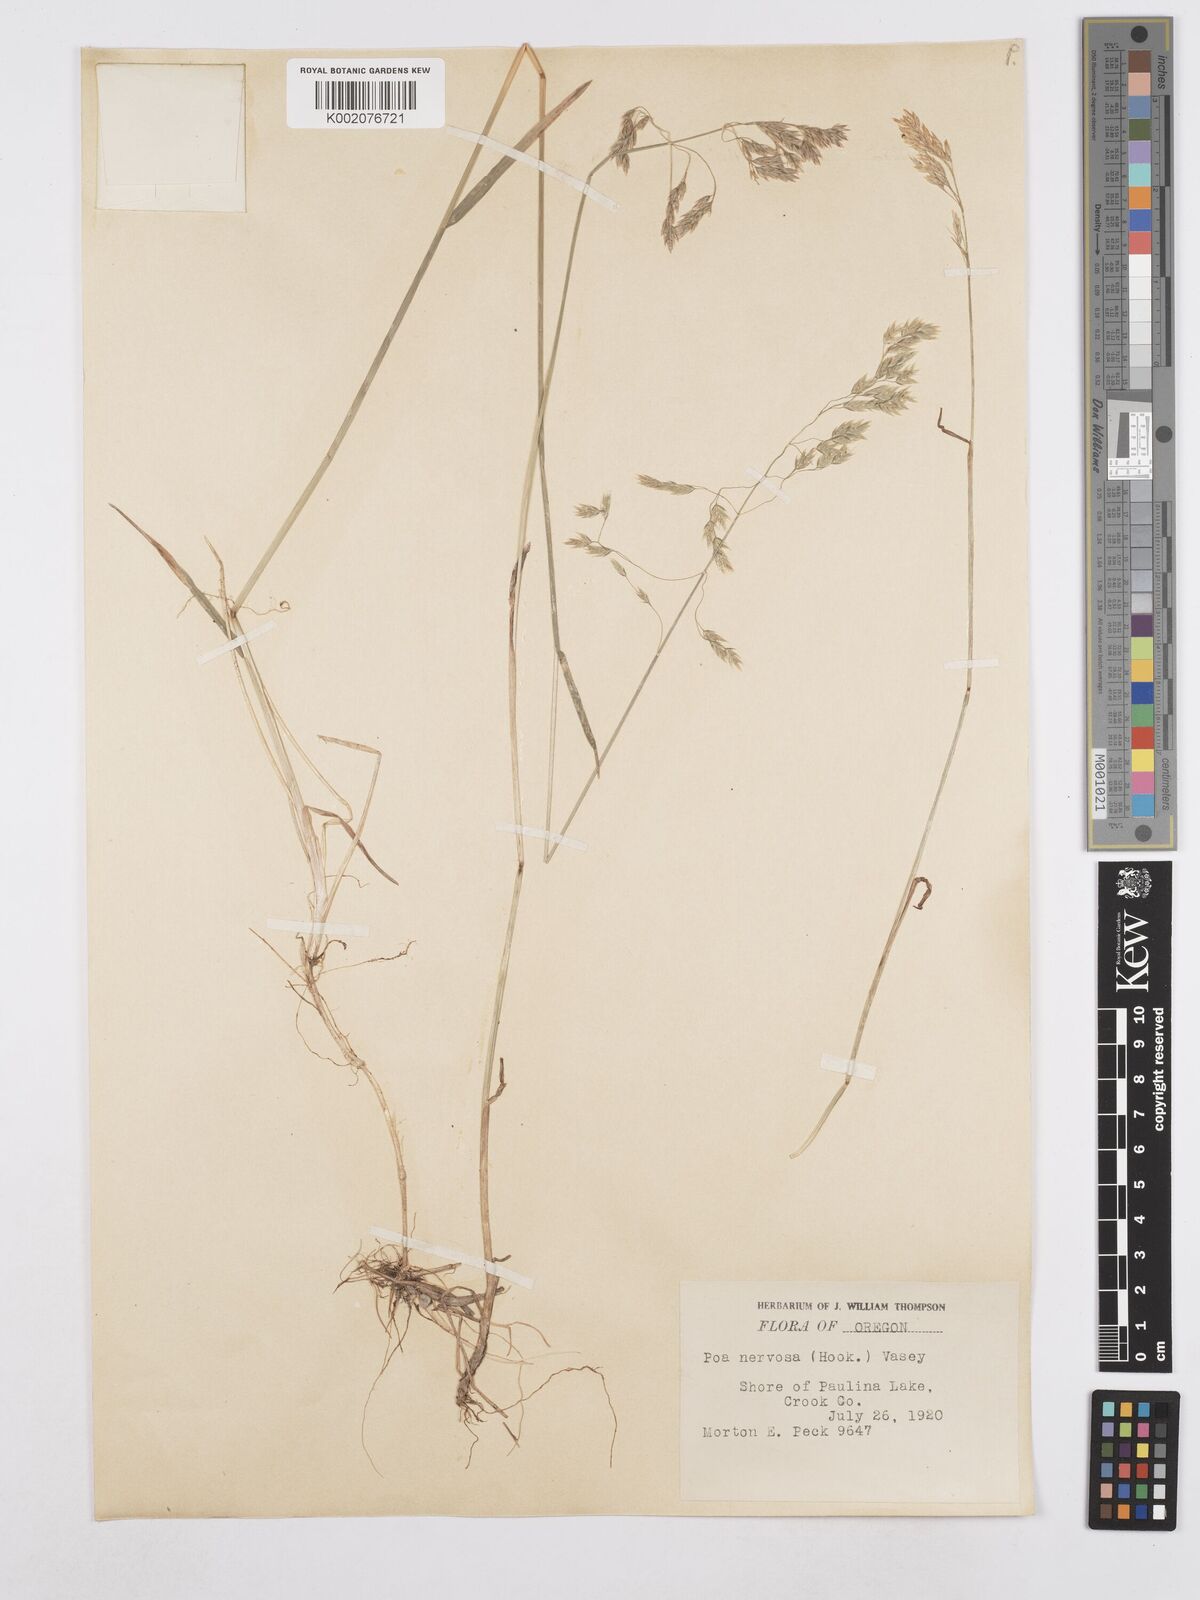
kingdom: Plantae
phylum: Tracheophyta
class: Liliopsida
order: Poales
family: Poaceae
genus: Poa
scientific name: Poa nervosa
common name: Hooker's bluegrass
